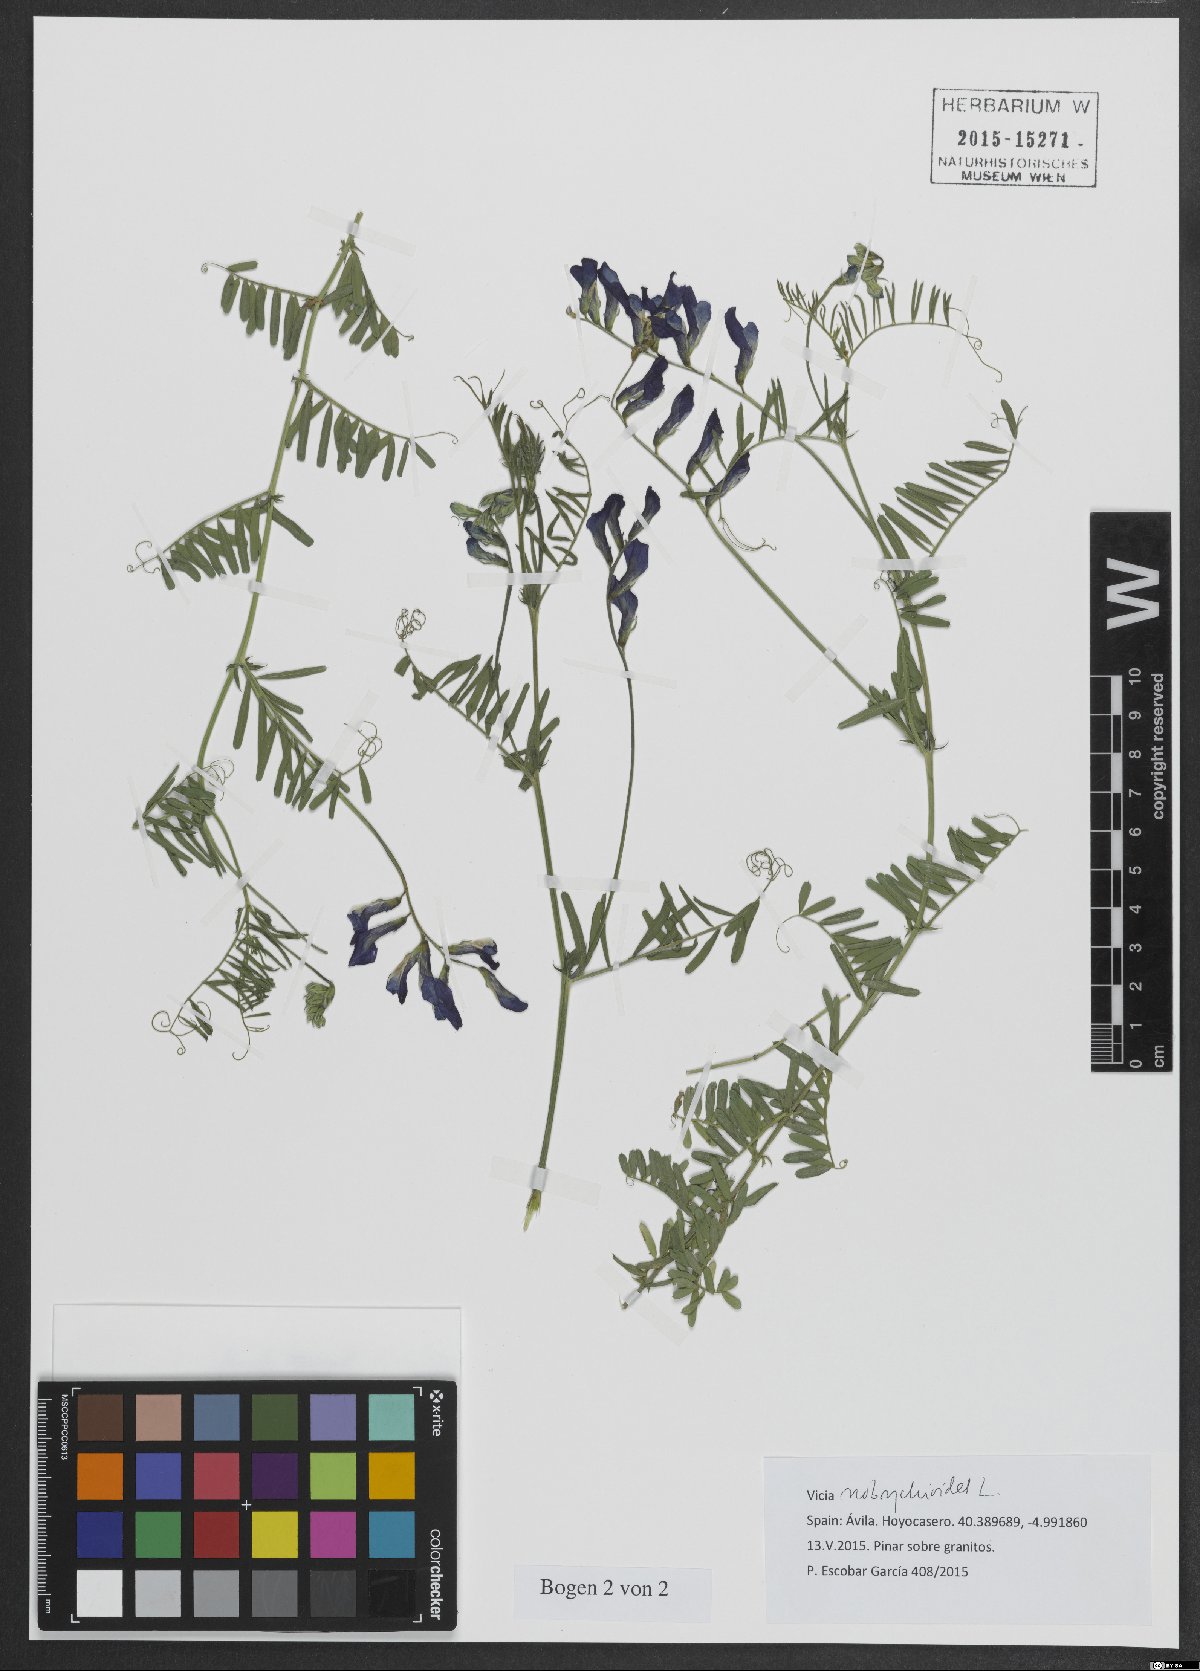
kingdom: Plantae
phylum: Tracheophyta
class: Magnoliopsida
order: Fabales
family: Fabaceae
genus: Vicia
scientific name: Vicia onobrychioides
